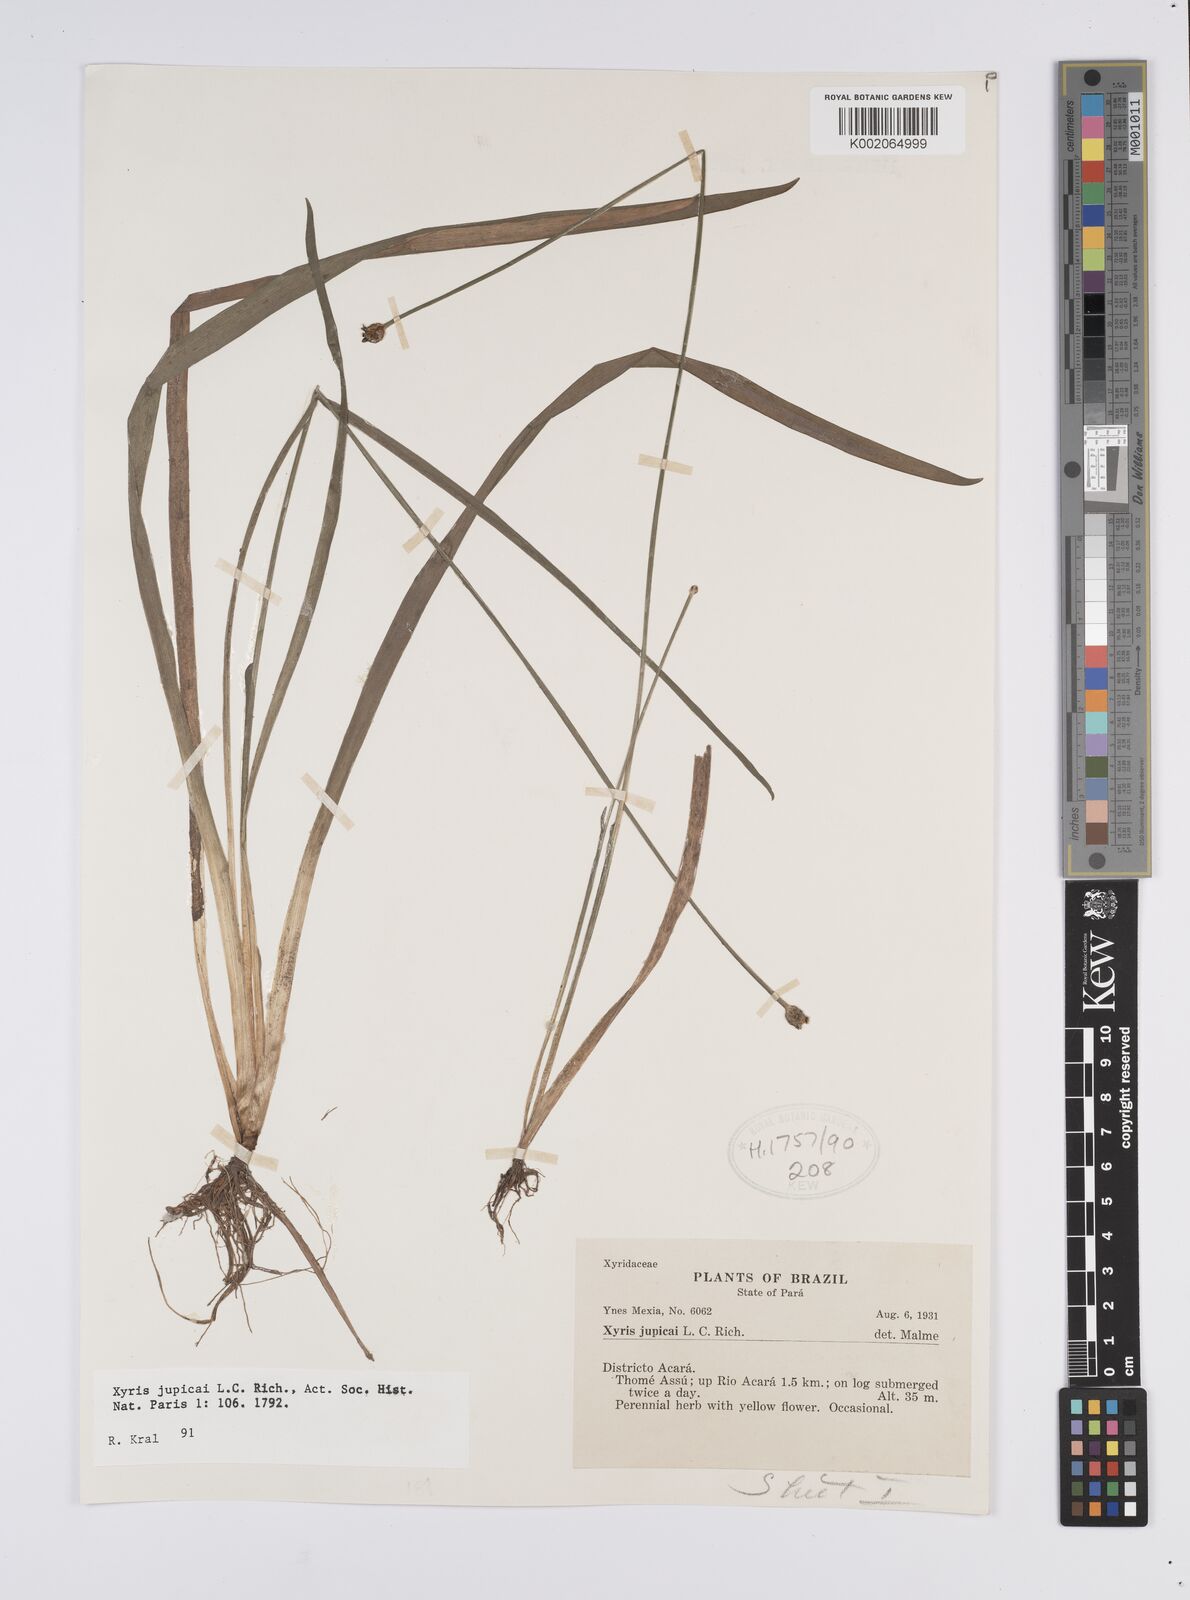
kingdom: Plantae
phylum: Tracheophyta
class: Liliopsida
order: Poales
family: Xyridaceae
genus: Xyris
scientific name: Xyris jupicai
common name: Richard's yelloweyed grass
